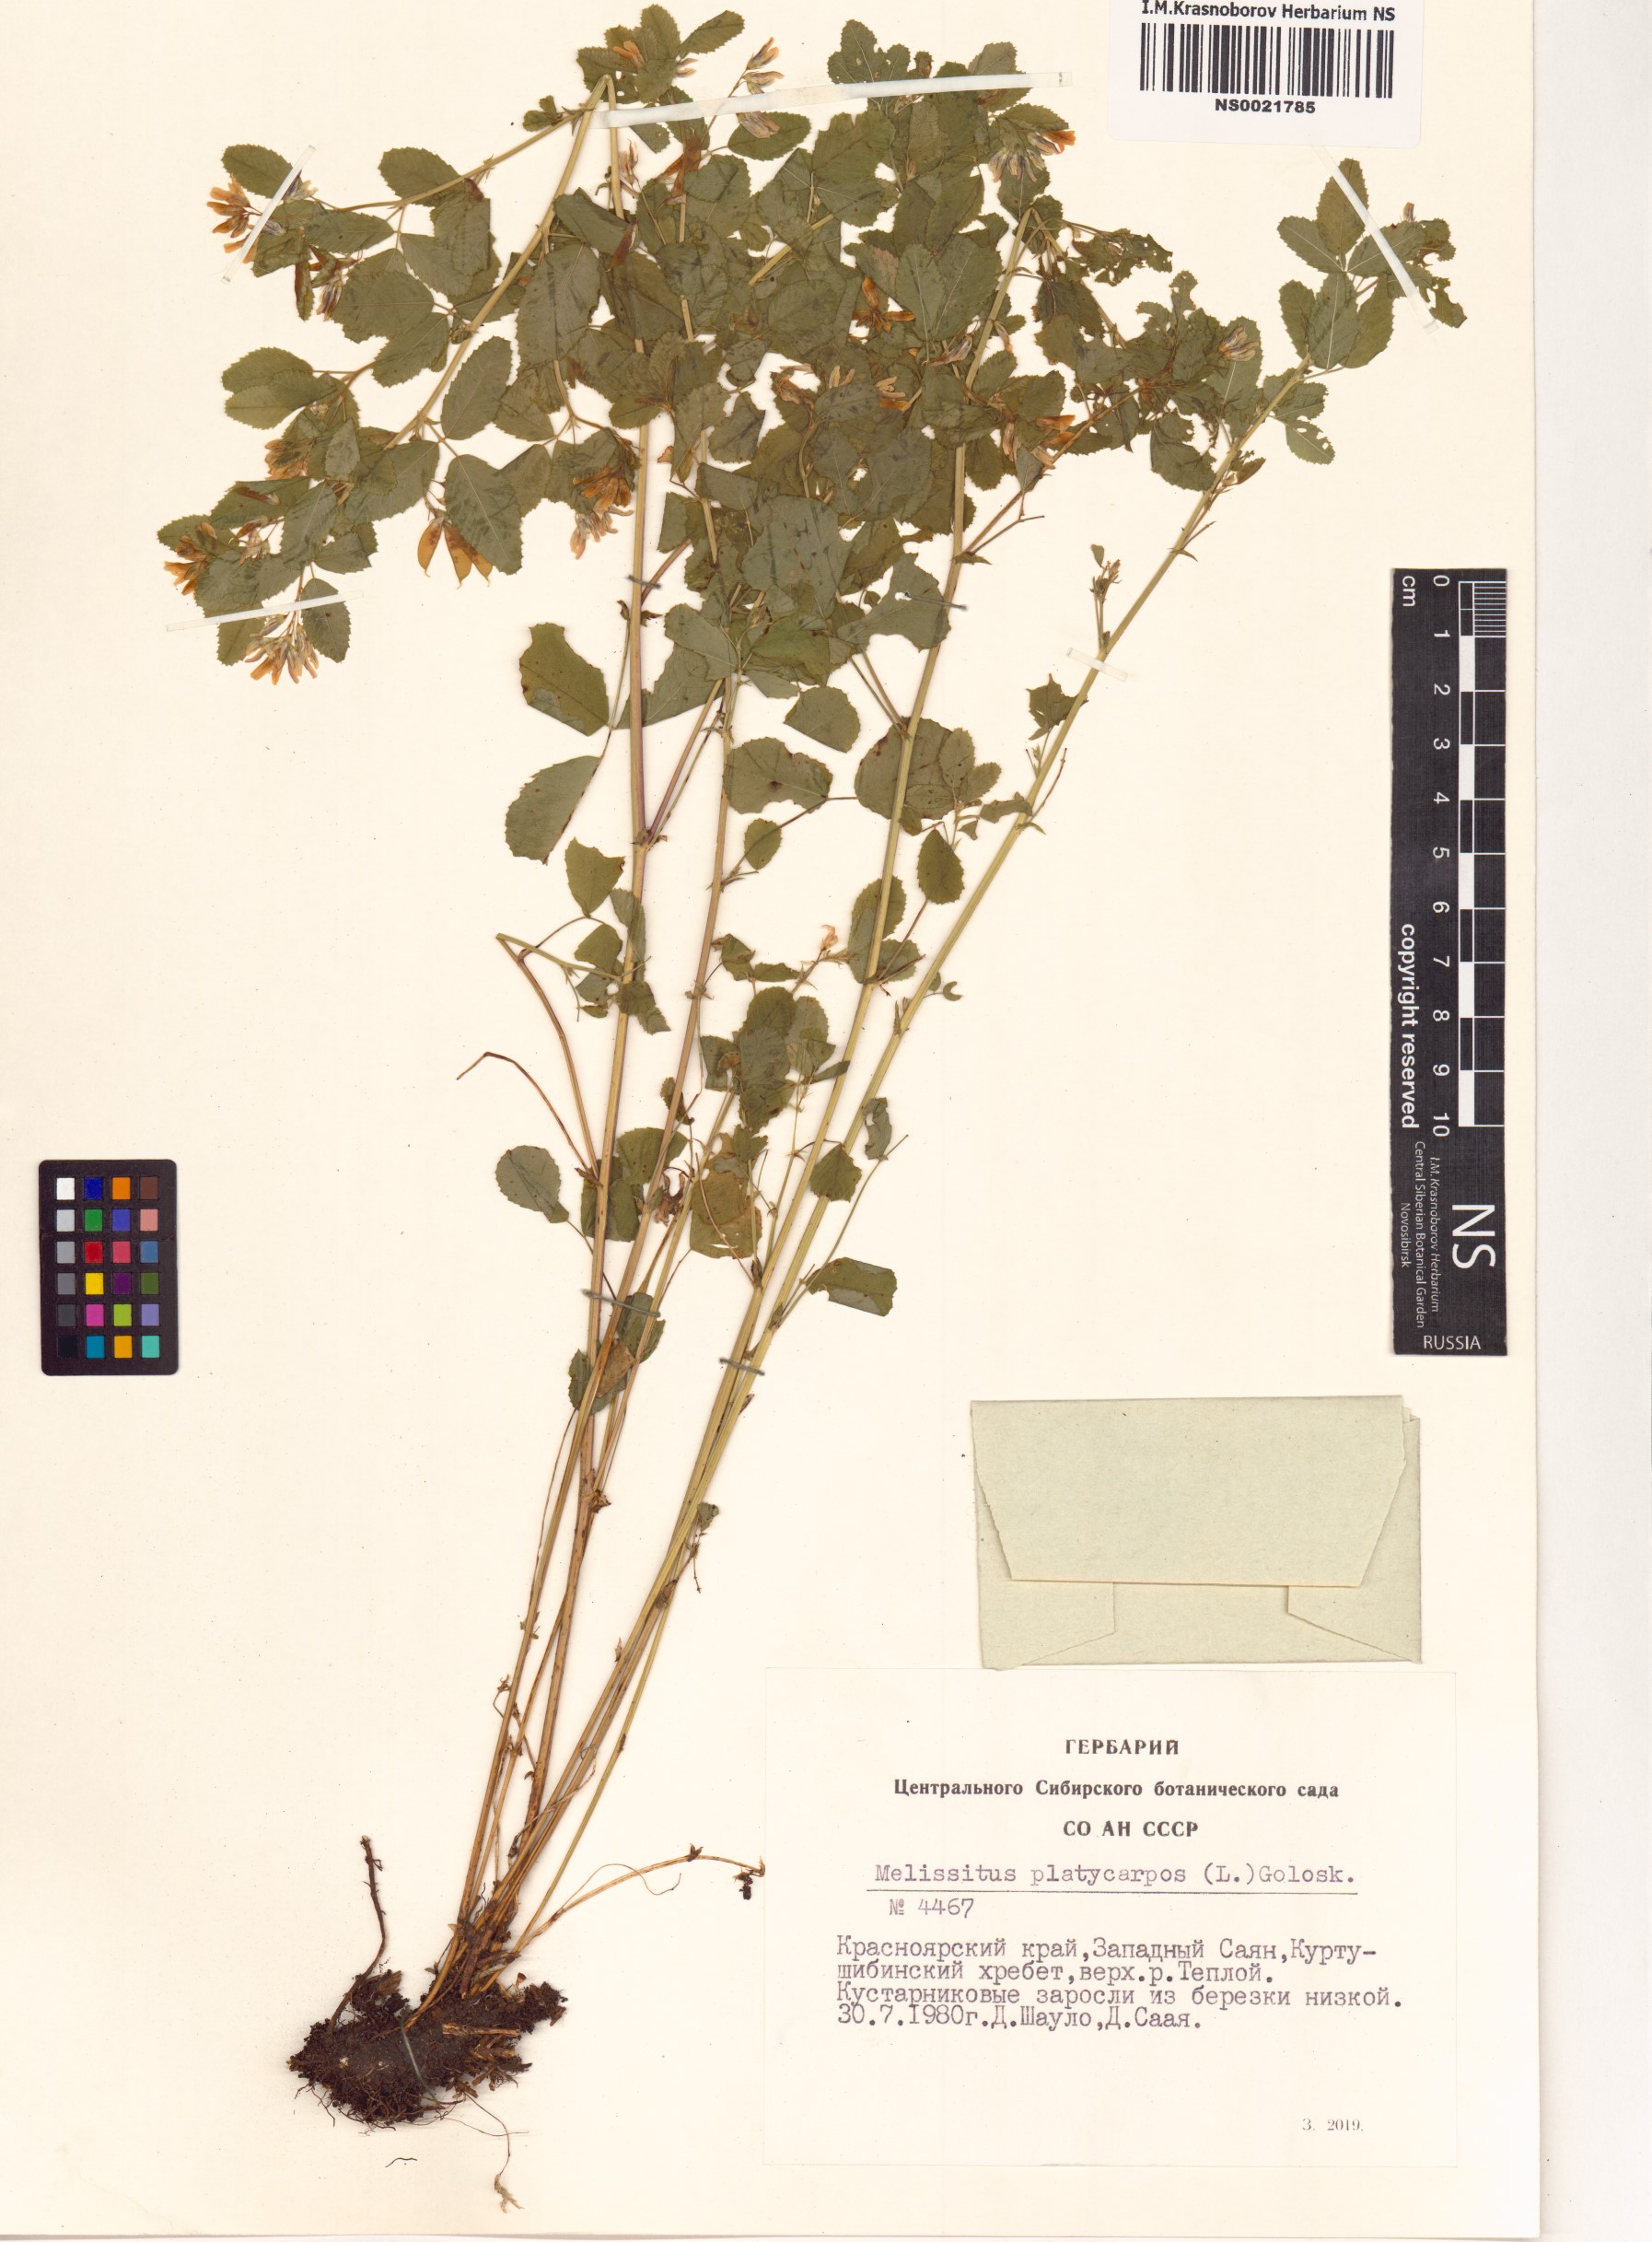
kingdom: Plantae
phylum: Tracheophyta
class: Magnoliopsida
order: Fabales
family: Fabaceae
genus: Medicago
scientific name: Medicago platycarpos
